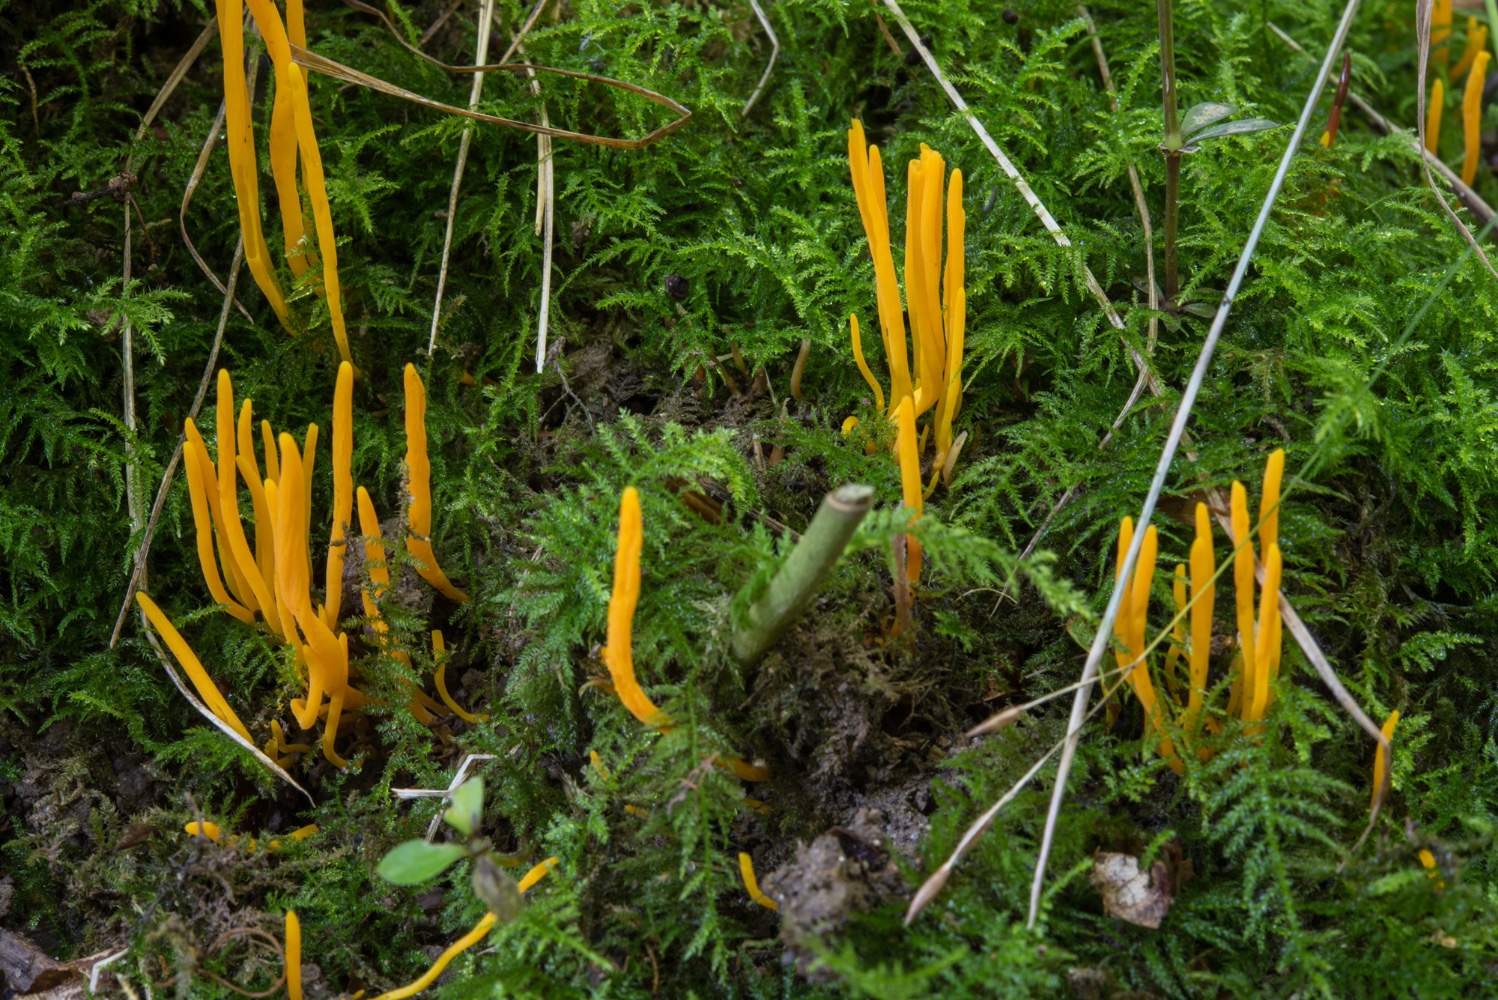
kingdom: Fungi
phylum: Basidiomycota
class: Agaricomycetes
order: Agaricales
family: Clavariaceae
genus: Clavulinopsis
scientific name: Clavulinopsis helvola
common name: orangegul køllesvamp
